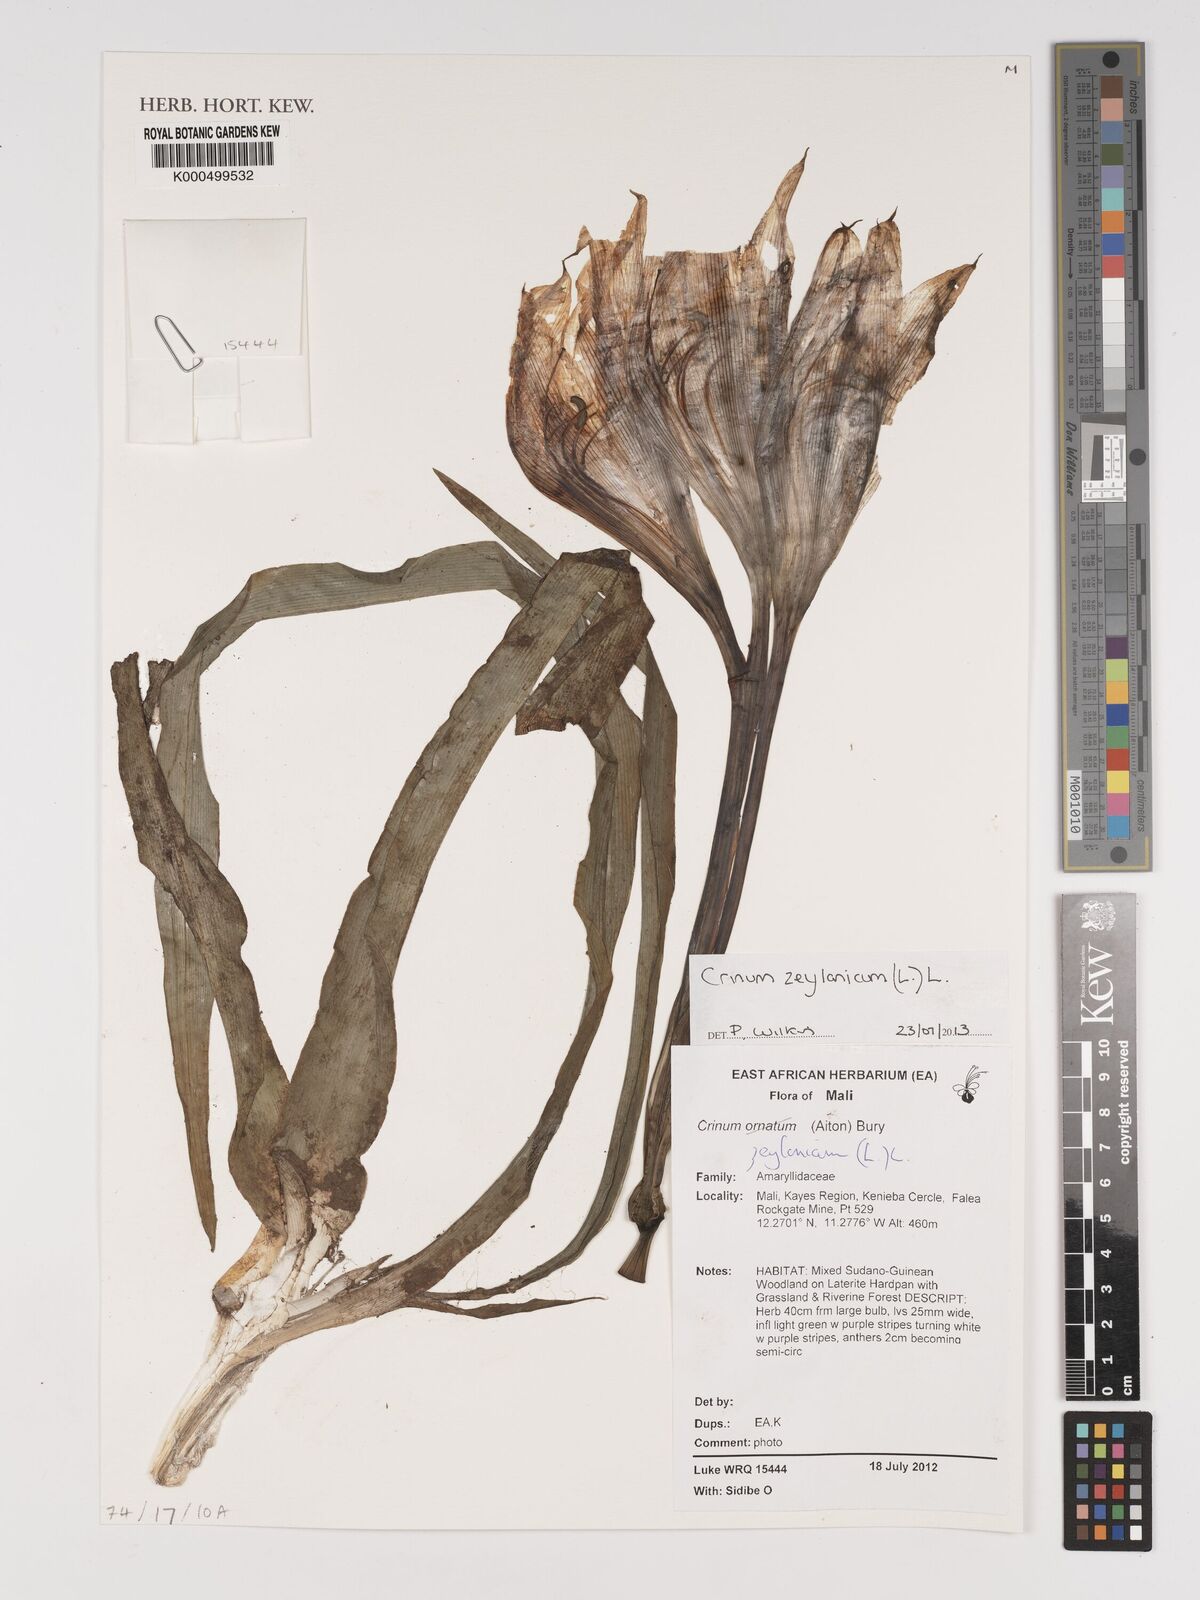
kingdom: Plantae
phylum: Tracheophyta
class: Liliopsida
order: Asparagales
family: Amaryllidaceae
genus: Crinum
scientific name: Crinum zeylanicum
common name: Ceylon swamplily
